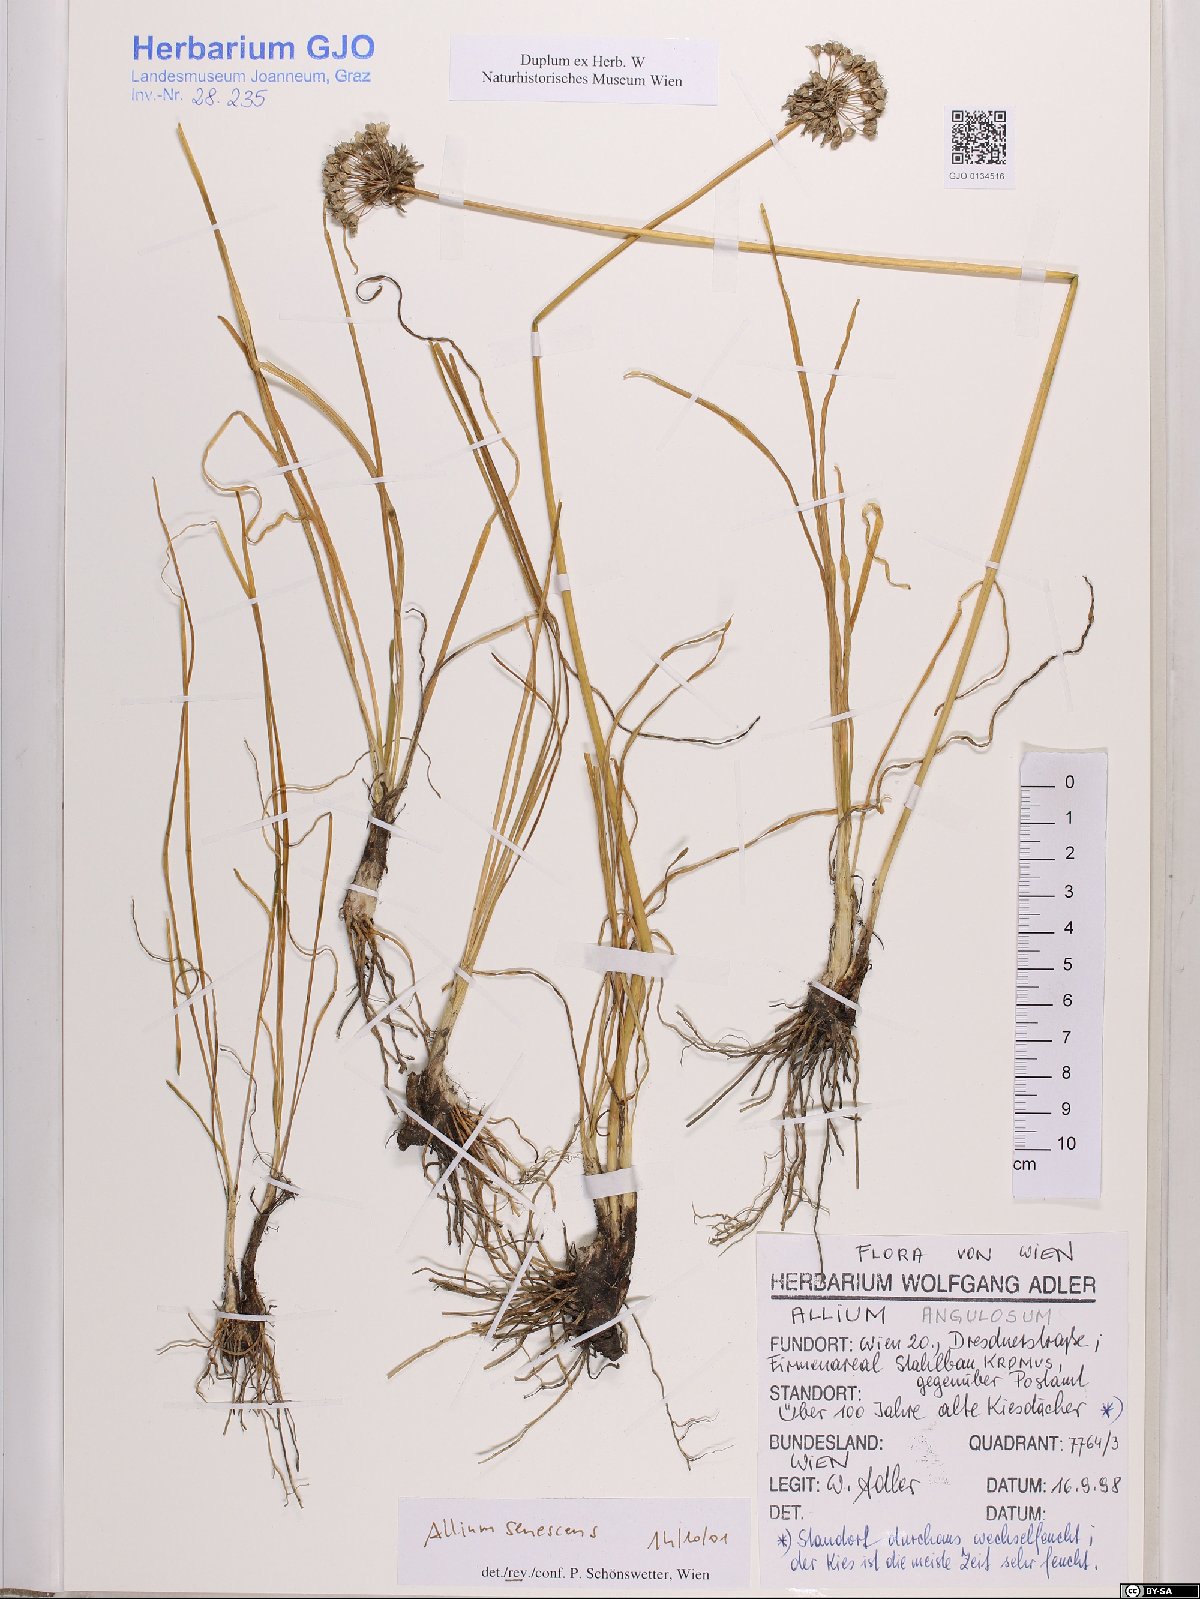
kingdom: Plantae
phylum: Tracheophyta
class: Liliopsida
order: Asparagales
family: Amaryllidaceae
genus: Allium
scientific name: Allium senescens
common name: German garlic
